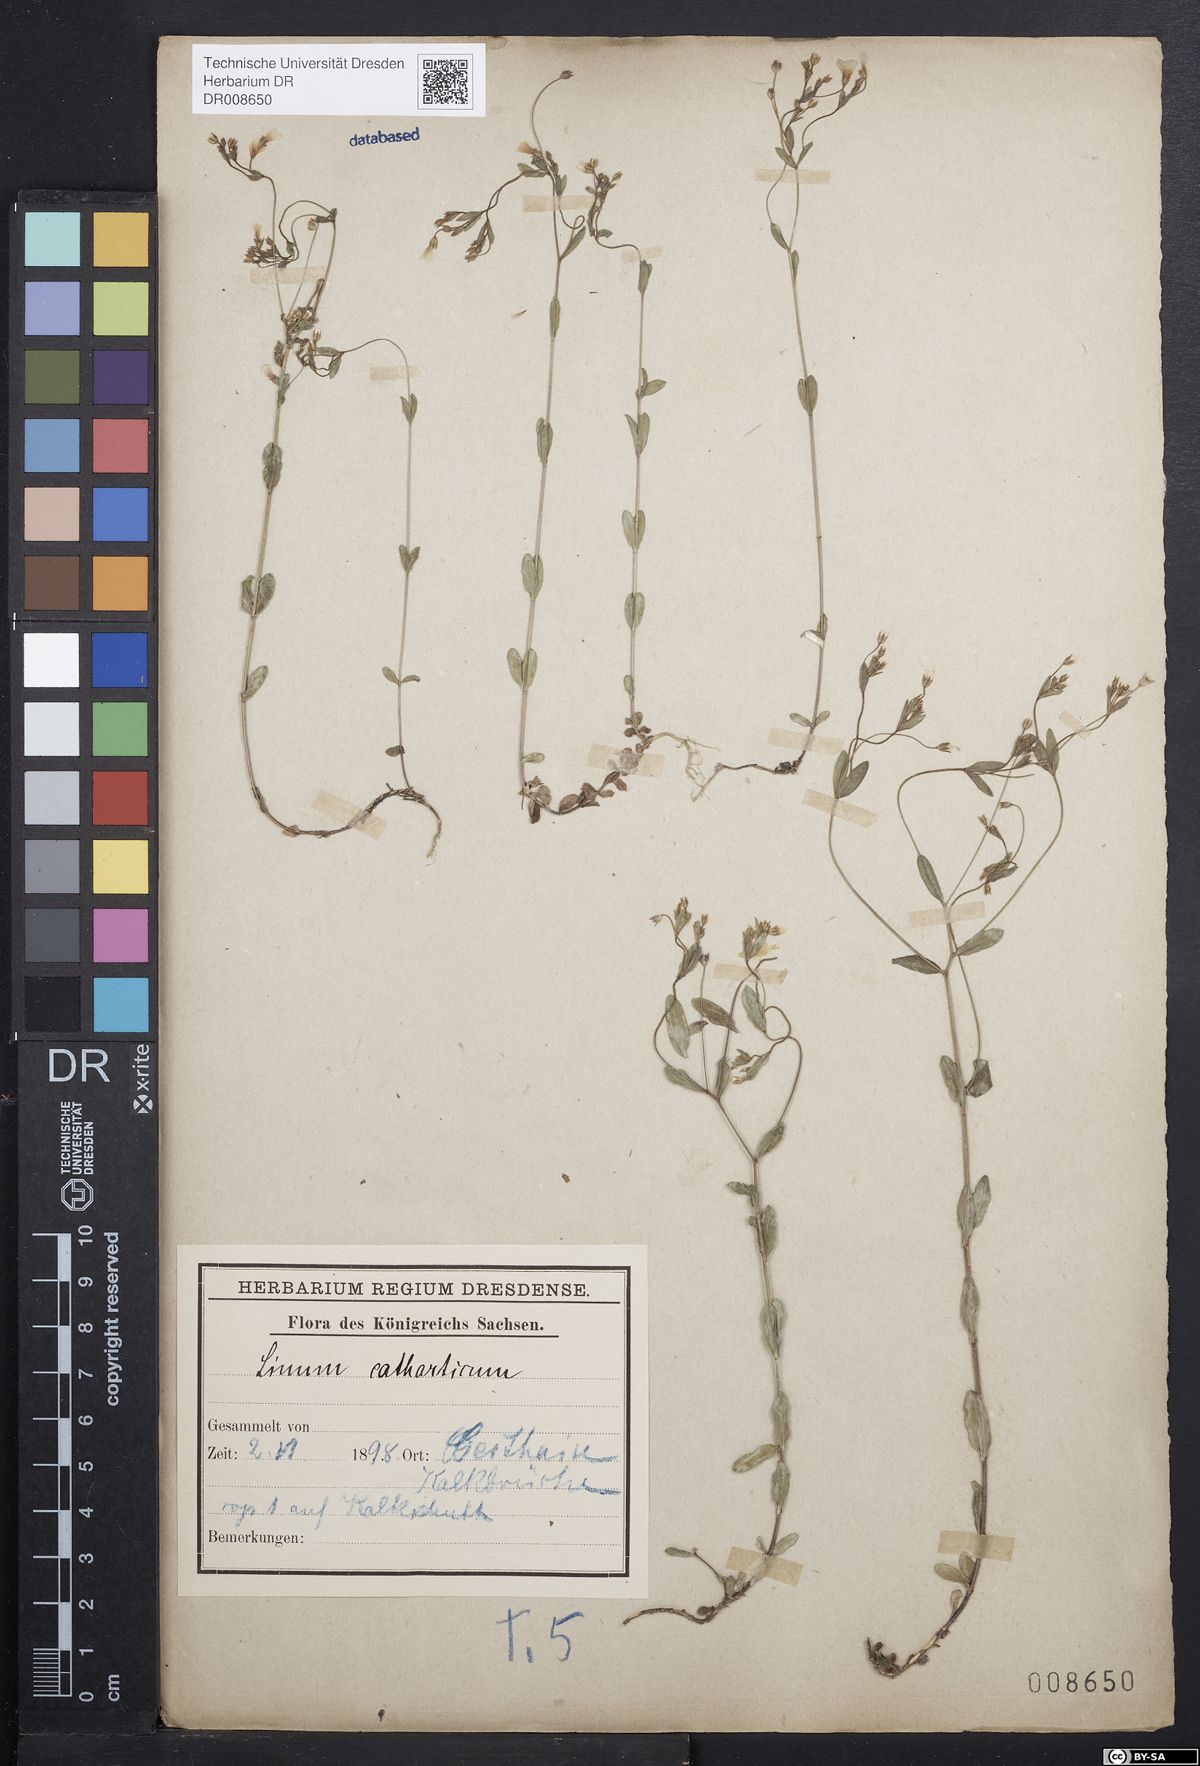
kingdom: Plantae
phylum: Tracheophyta
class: Magnoliopsida
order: Malpighiales
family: Linaceae
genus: Linum
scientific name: Linum catharticum
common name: Fairy flax
